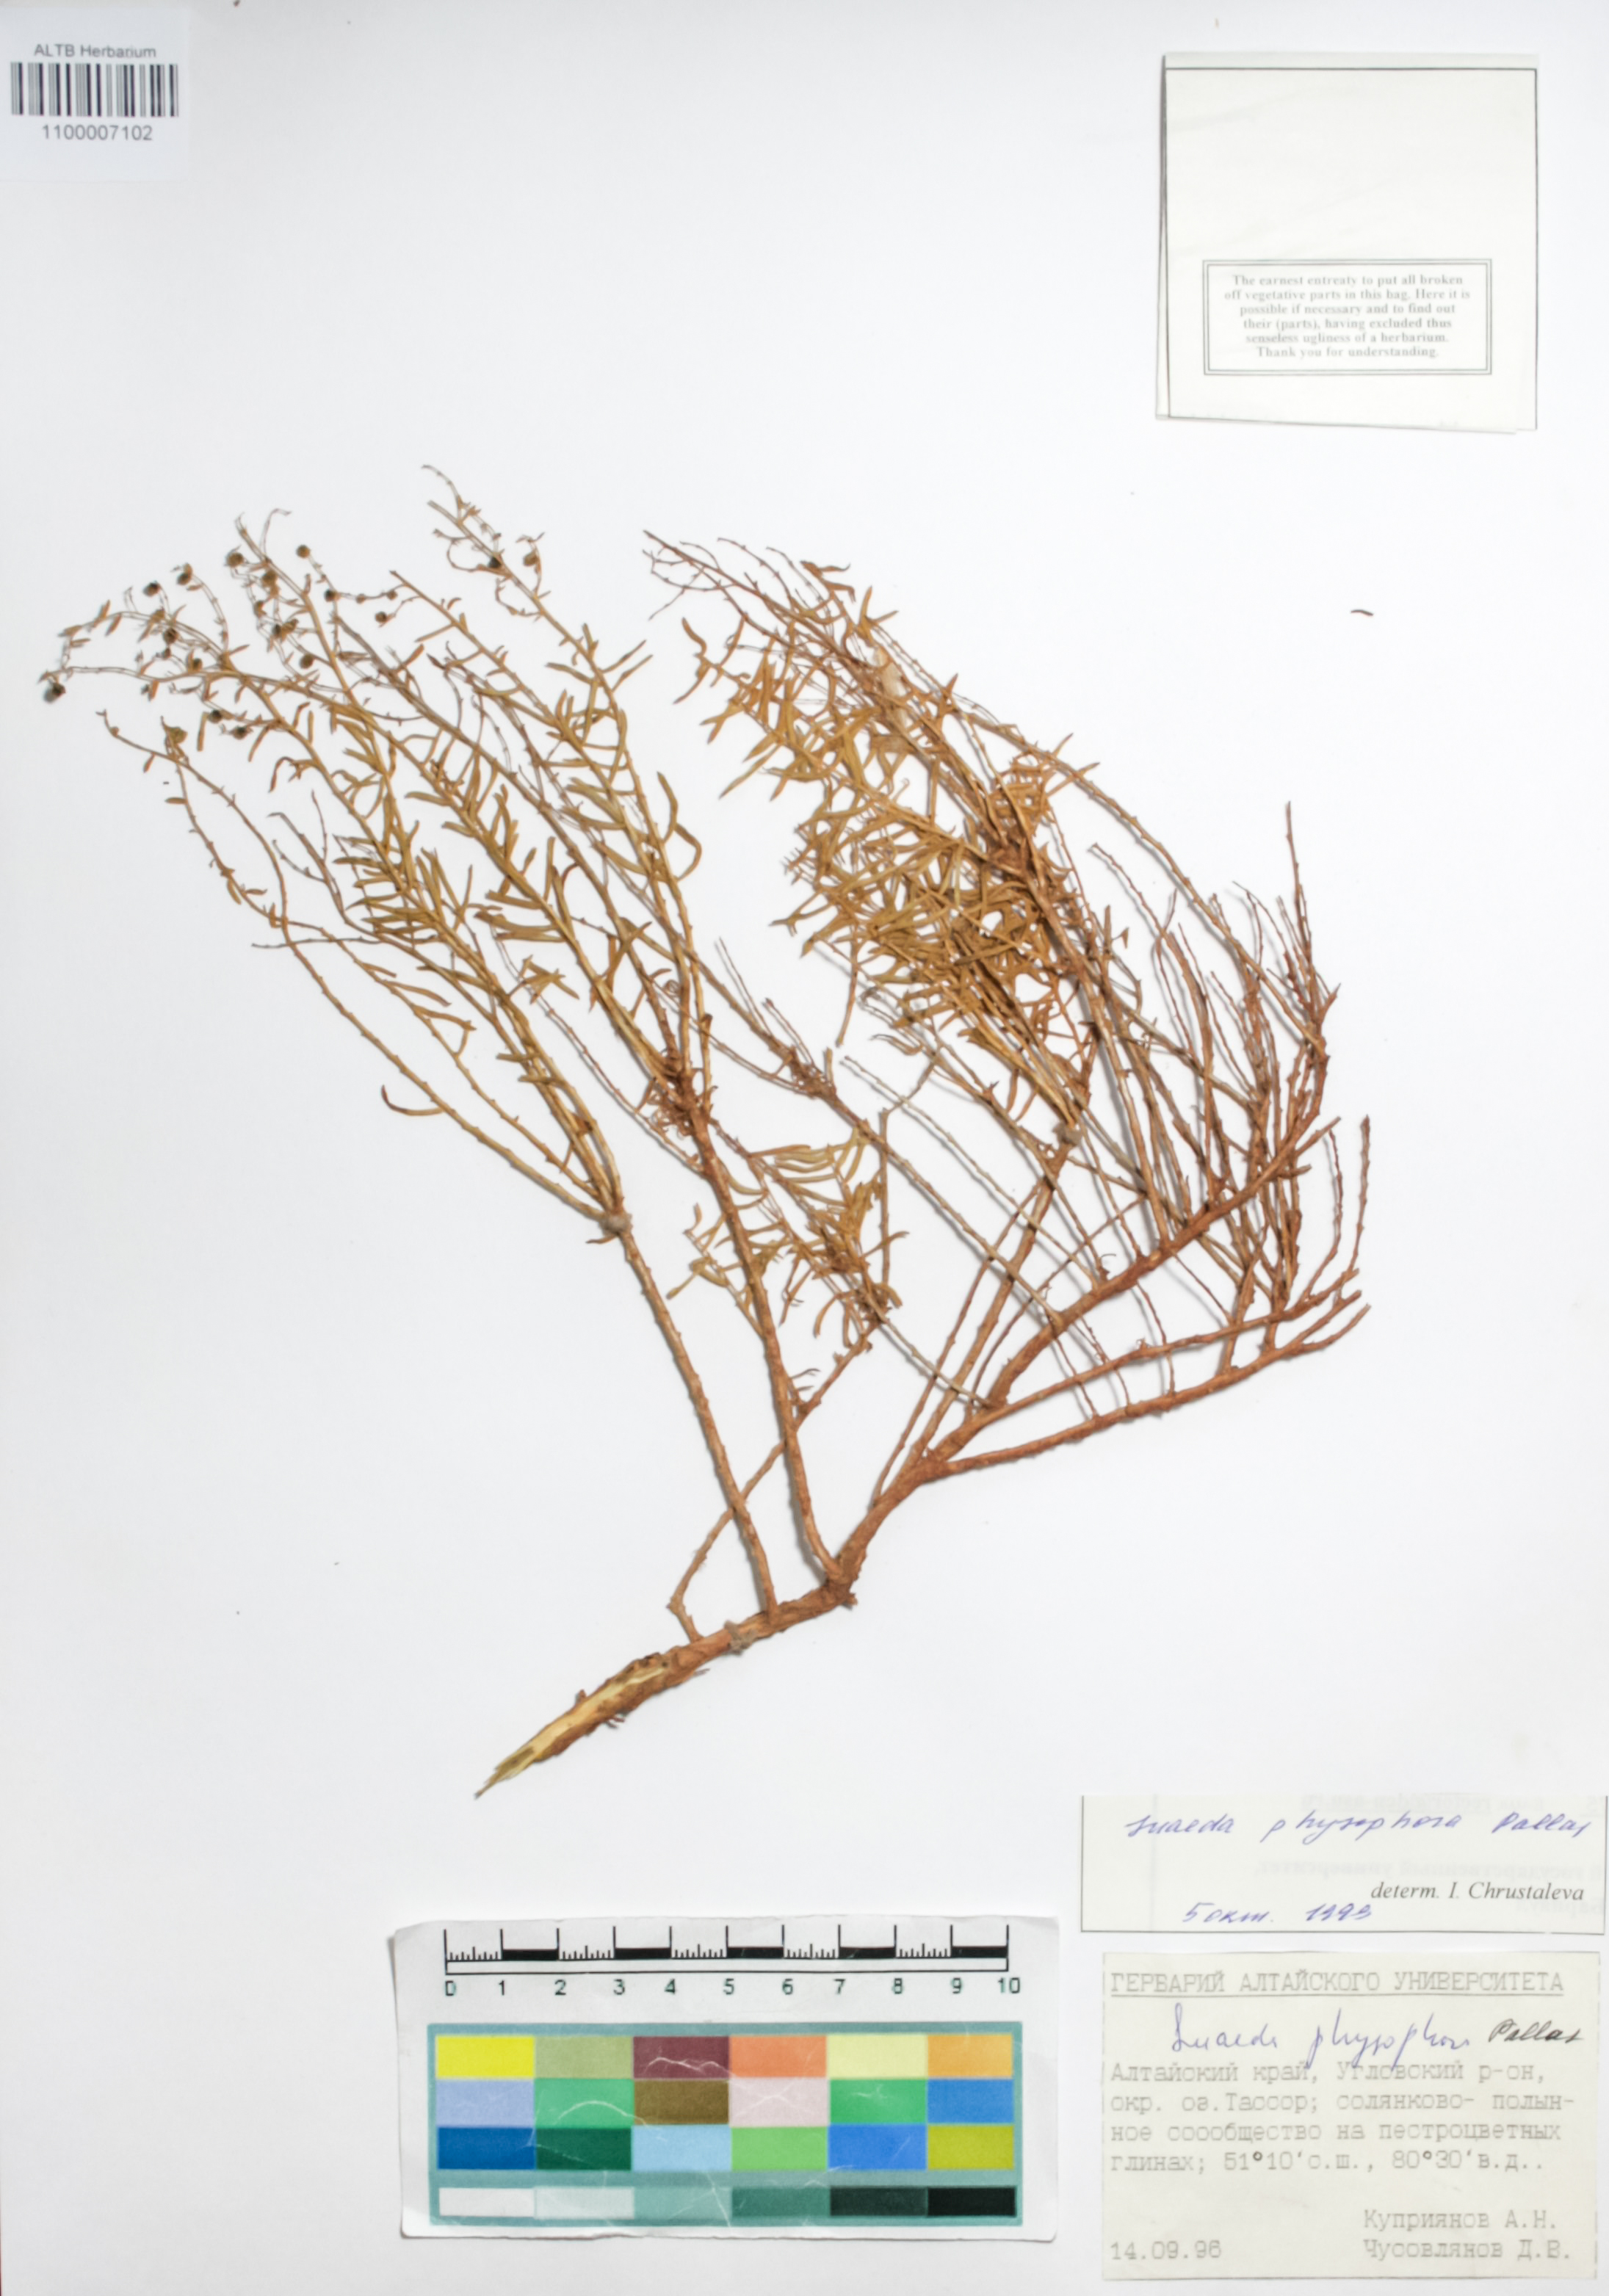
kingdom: Plantae
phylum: Tracheophyta
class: Magnoliopsida
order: Caryophyllales
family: Amaranthaceae
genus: Suaeda
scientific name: Suaeda physophora
